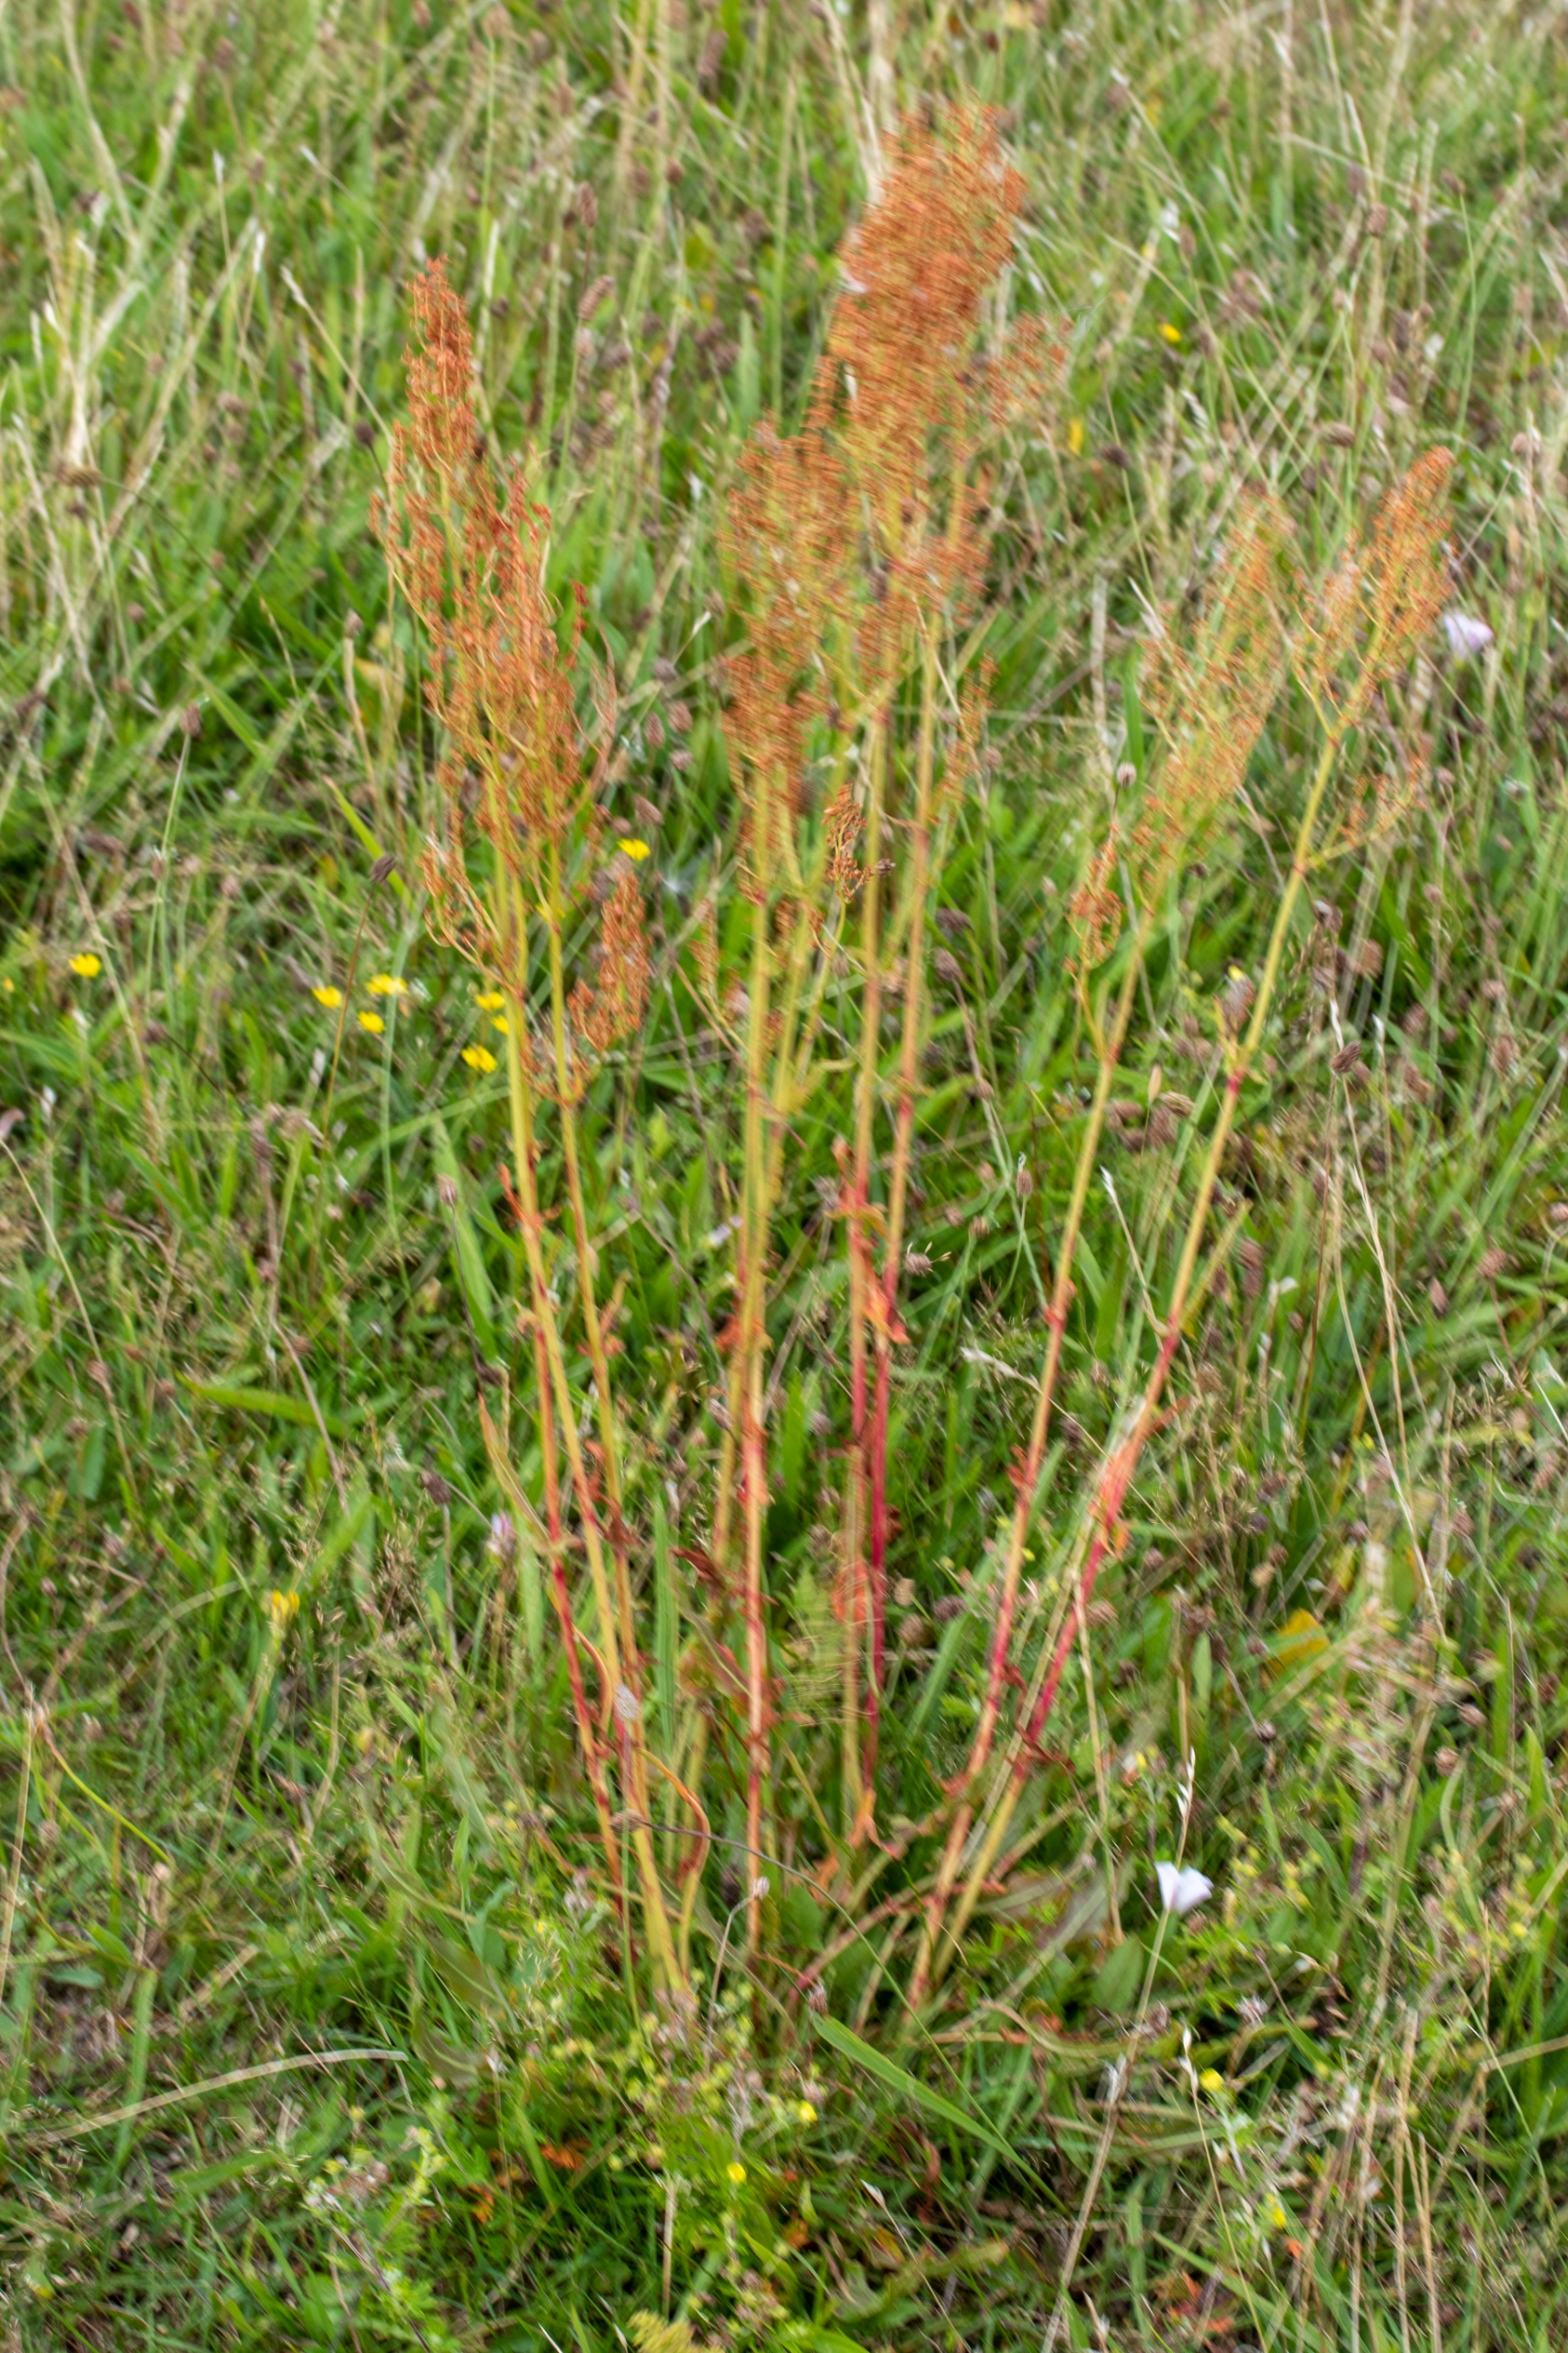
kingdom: Plantae
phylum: Tracheophyta
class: Magnoliopsida
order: Caryophyllales
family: Polygonaceae
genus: Rumex
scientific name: Rumex thyrsiflorus
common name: Dusk-syre
